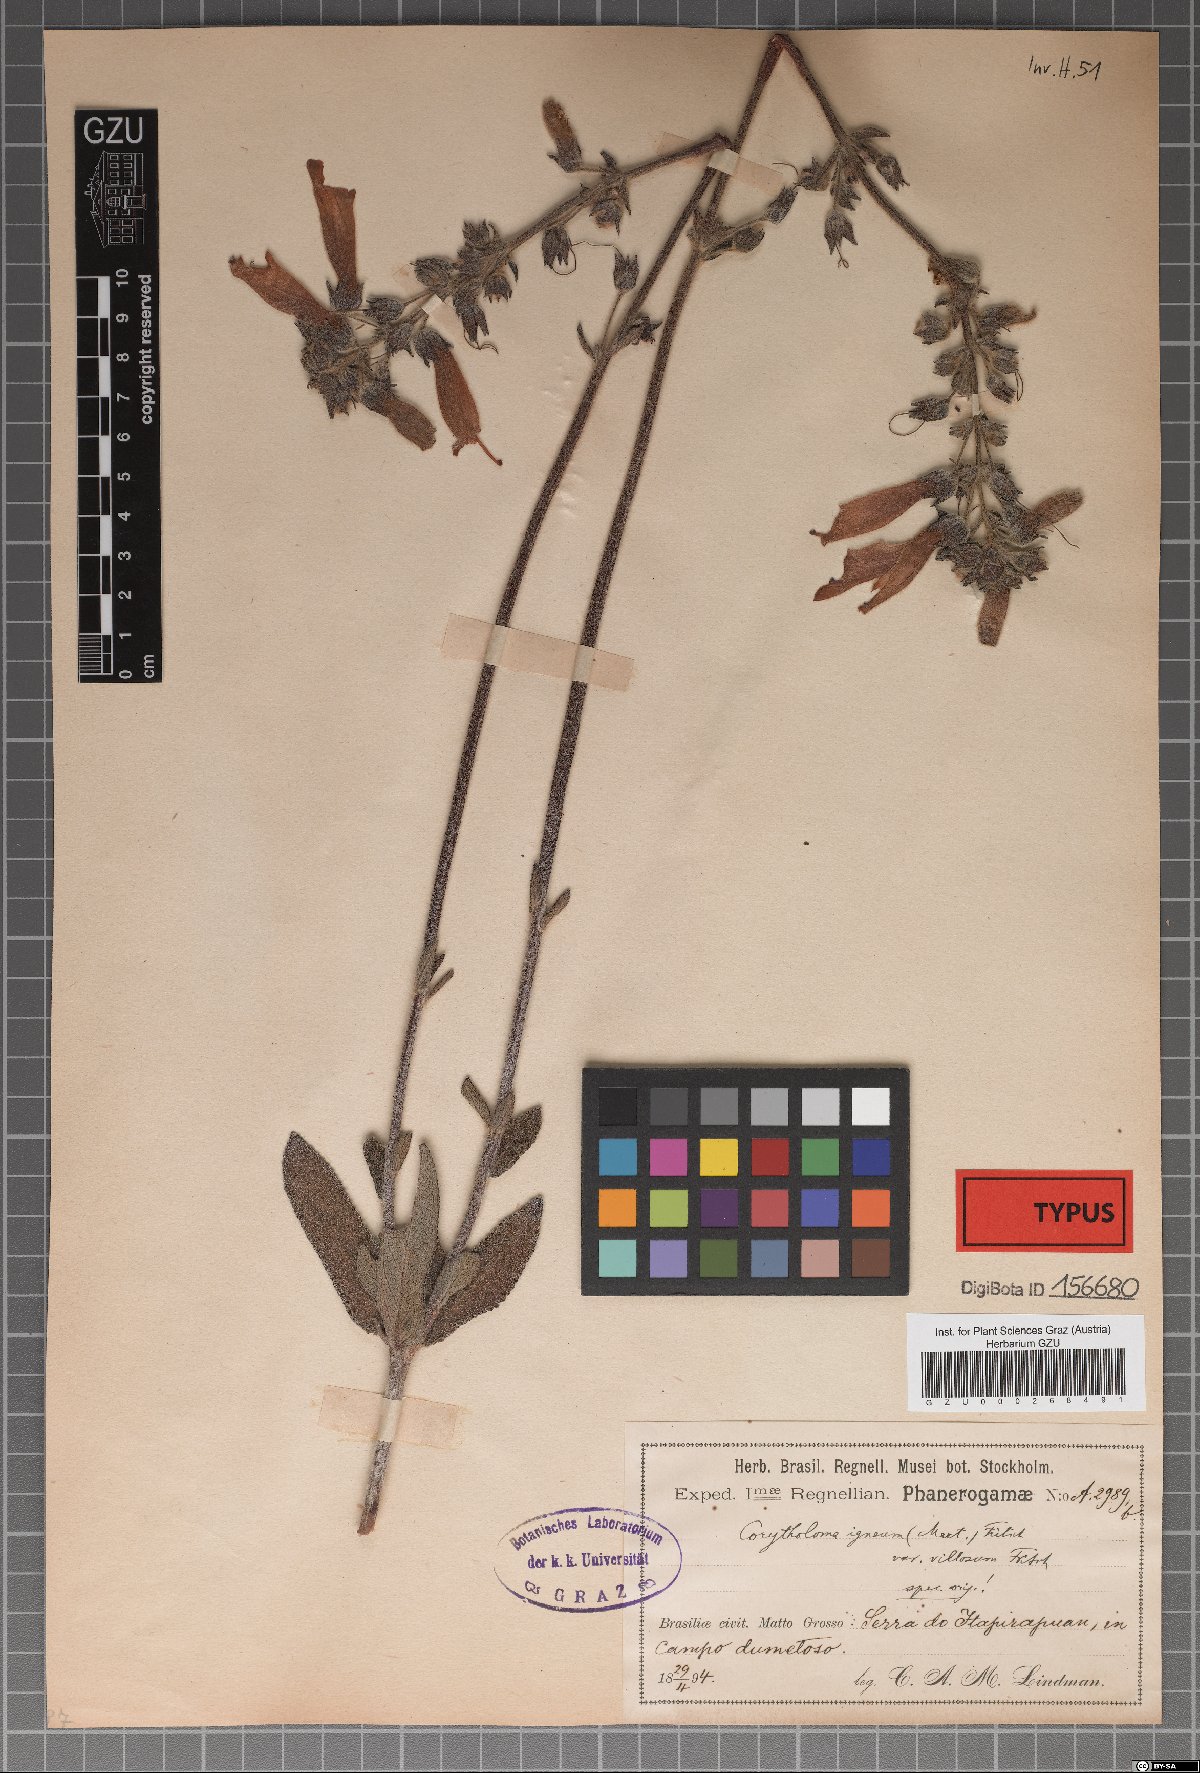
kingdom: Plantae
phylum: Tracheophyta
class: Magnoliopsida
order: Lamiales
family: Gesneriaceae
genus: Sinningia
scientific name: Sinningia elatior
